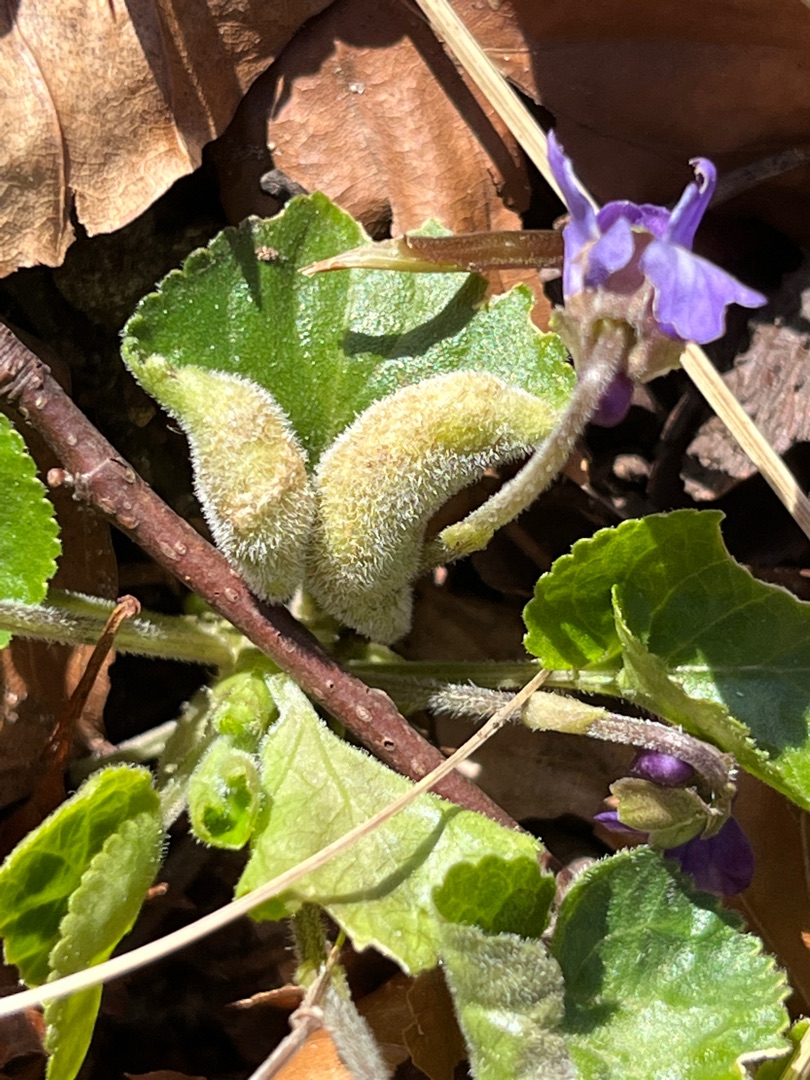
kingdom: Animalia
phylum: Arthropoda
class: Insecta
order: Diptera
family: Cecidomyiidae
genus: Dasineura
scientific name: Dasineura odoratae
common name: Martsviolgalmyg
